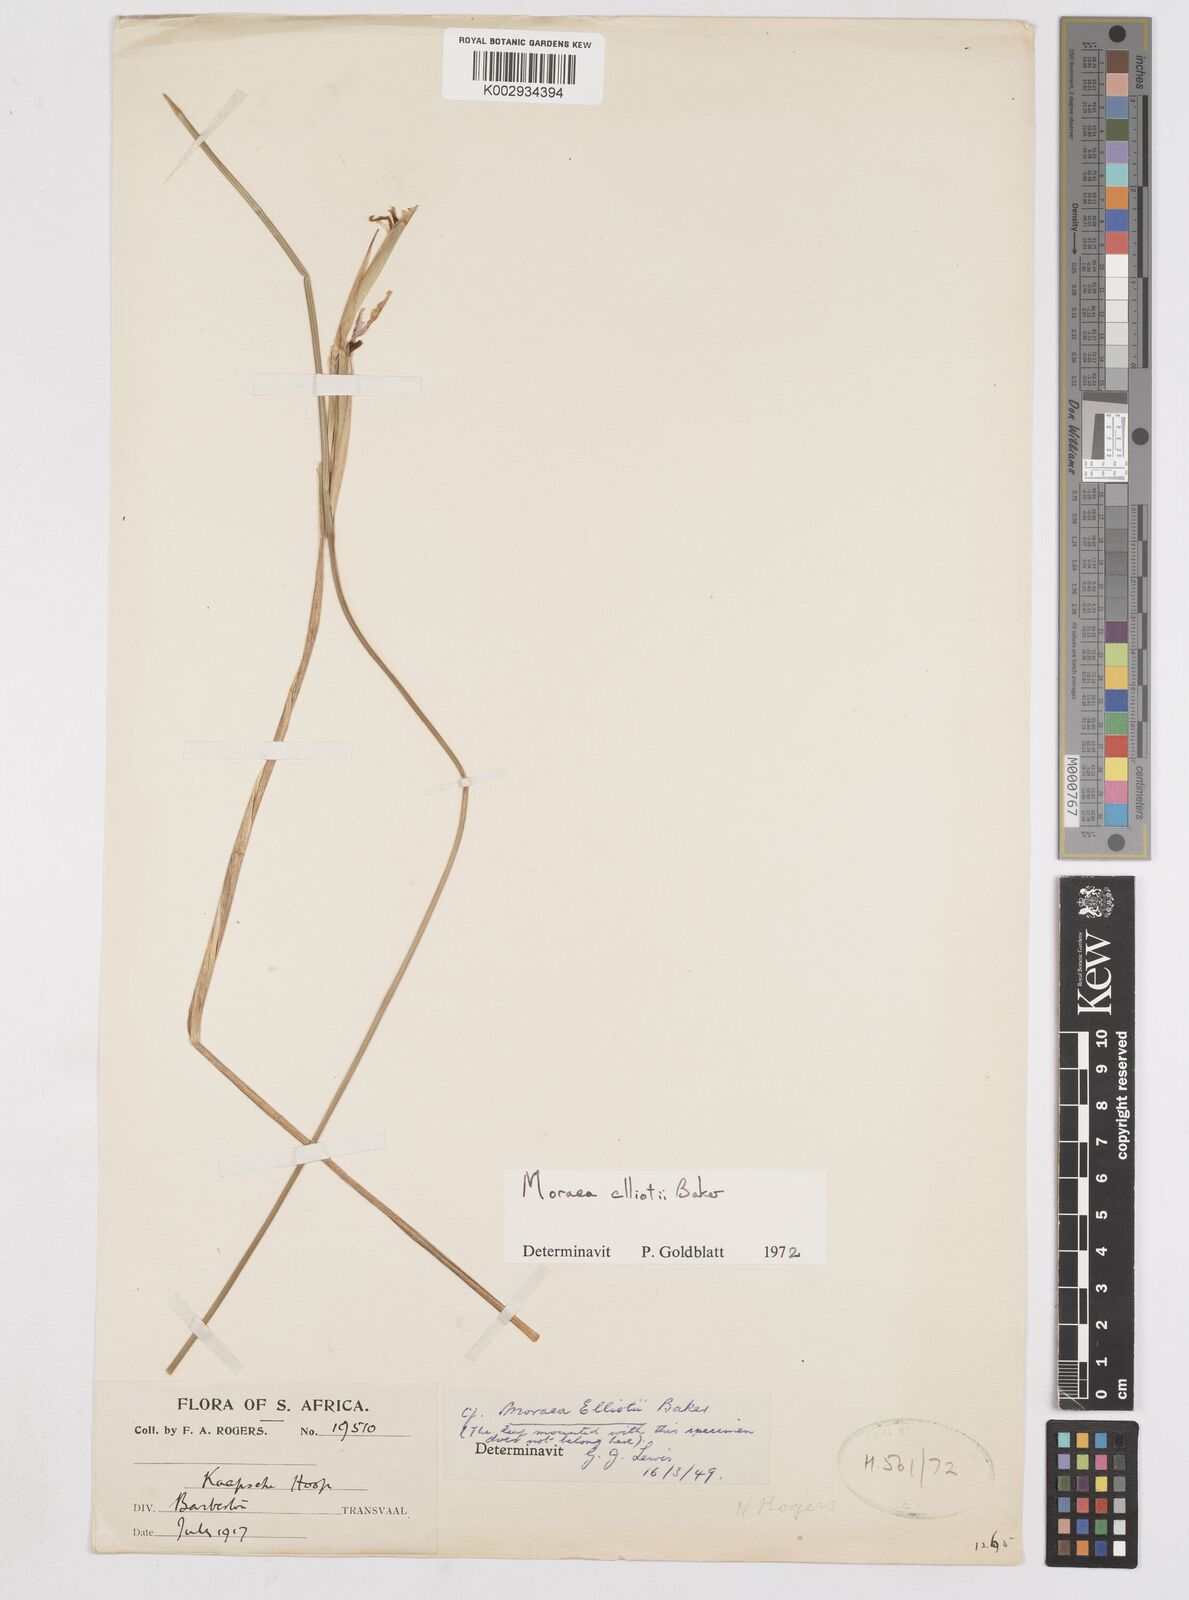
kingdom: Plantae
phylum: Tracheophyta
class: Liliopsida
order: Asparagales
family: Iridaceae
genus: Moraea
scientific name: Moraea elliotii
